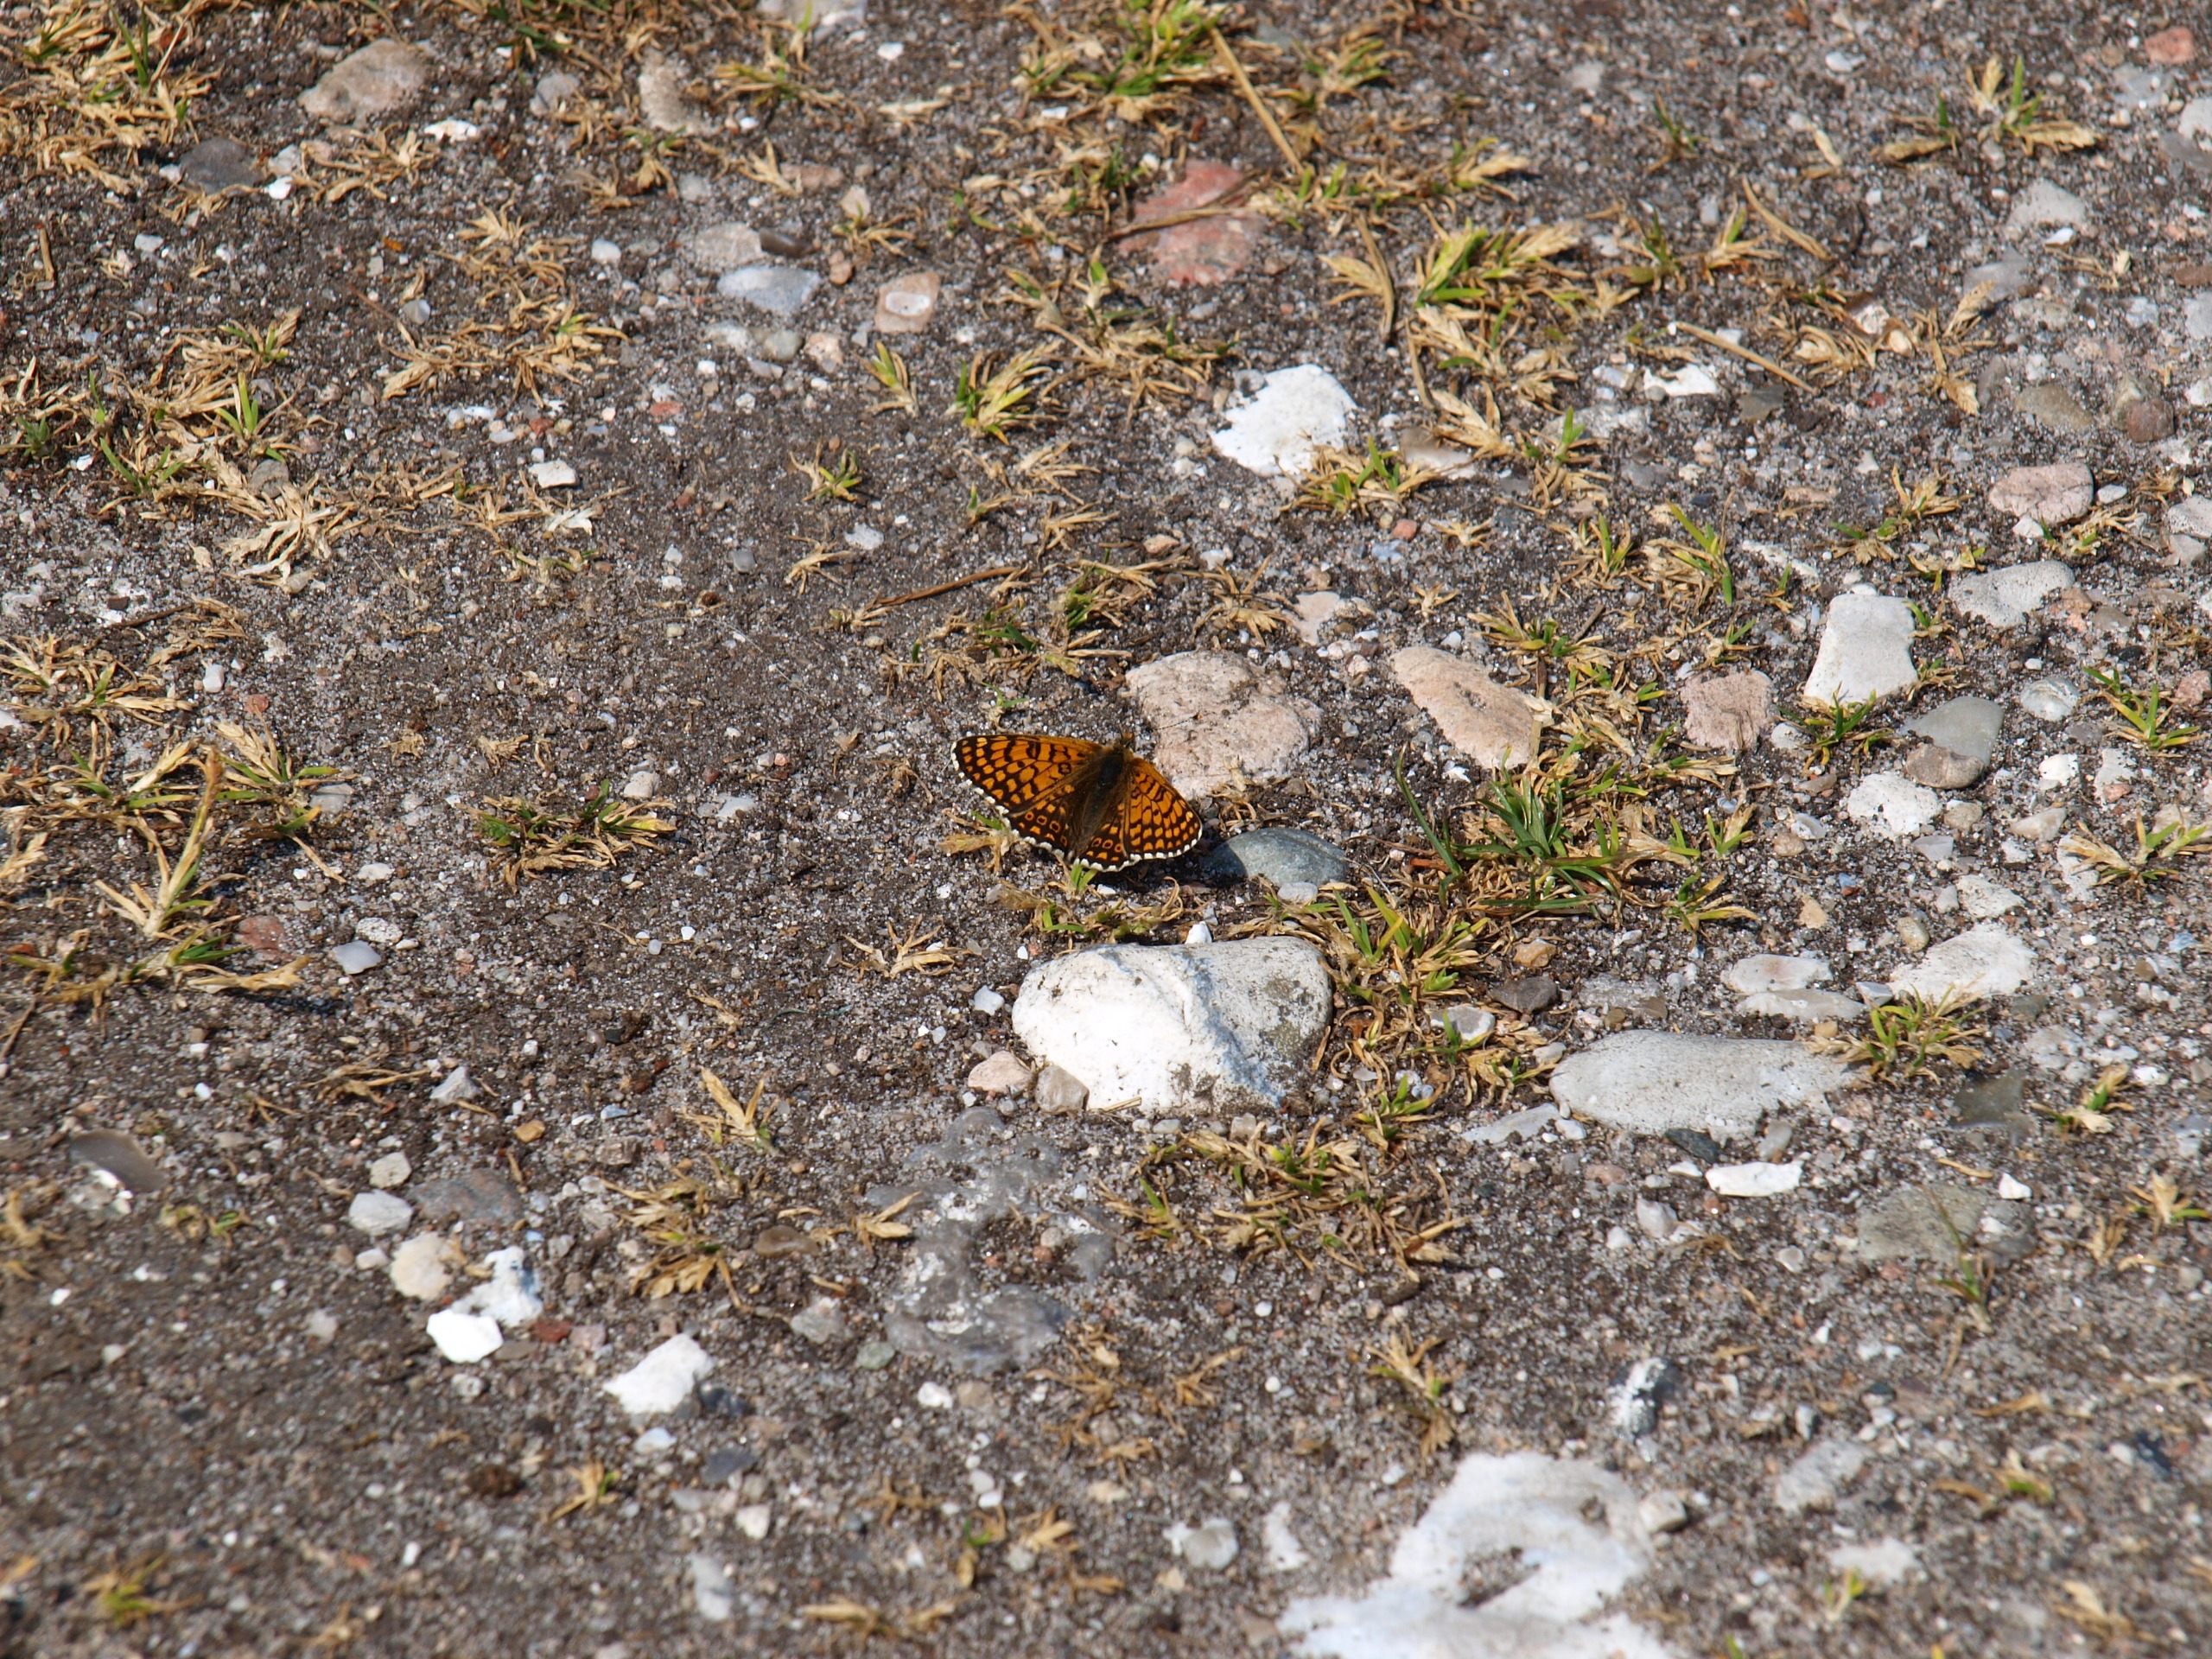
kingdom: Animalia
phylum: Arthropoda
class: Insecta
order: Lepidoptera
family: Nymphalidae
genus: Melitaea
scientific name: Melitaea cinxia
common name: Okkergul pletvinge
